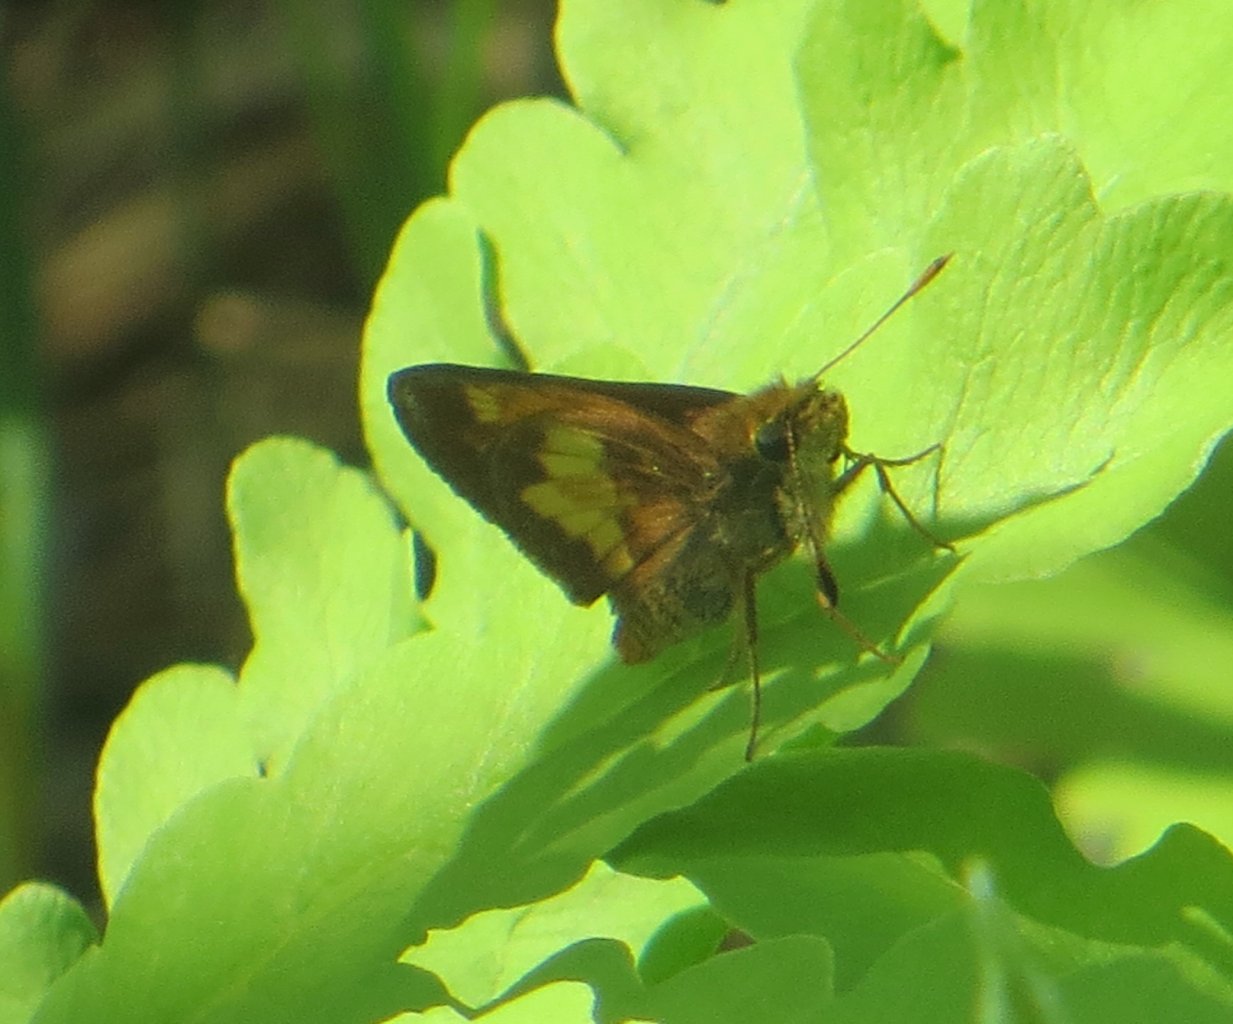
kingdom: Animalia
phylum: Arthropoda
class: Insecta
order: Lepidoptera
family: Hesperiidae
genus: Lon
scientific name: Lon hobomok
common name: Hobomok Skipper
